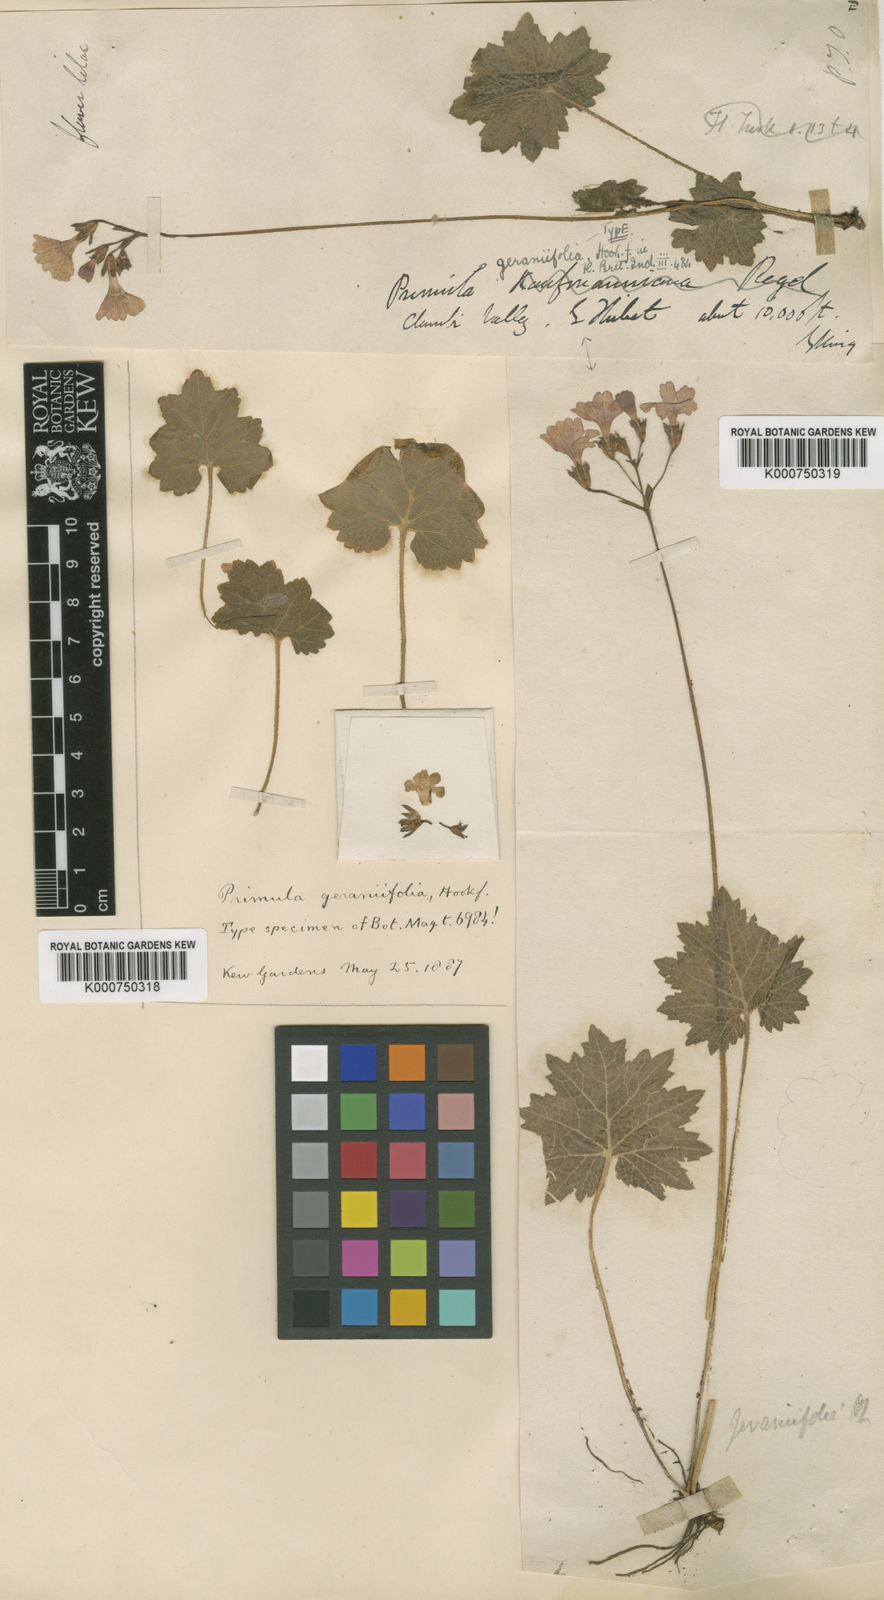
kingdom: Plantae
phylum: Tracheophyta
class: Magnoliopsida
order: Ericales
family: Primulaceae
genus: Primula
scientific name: Primula geraniifolia
